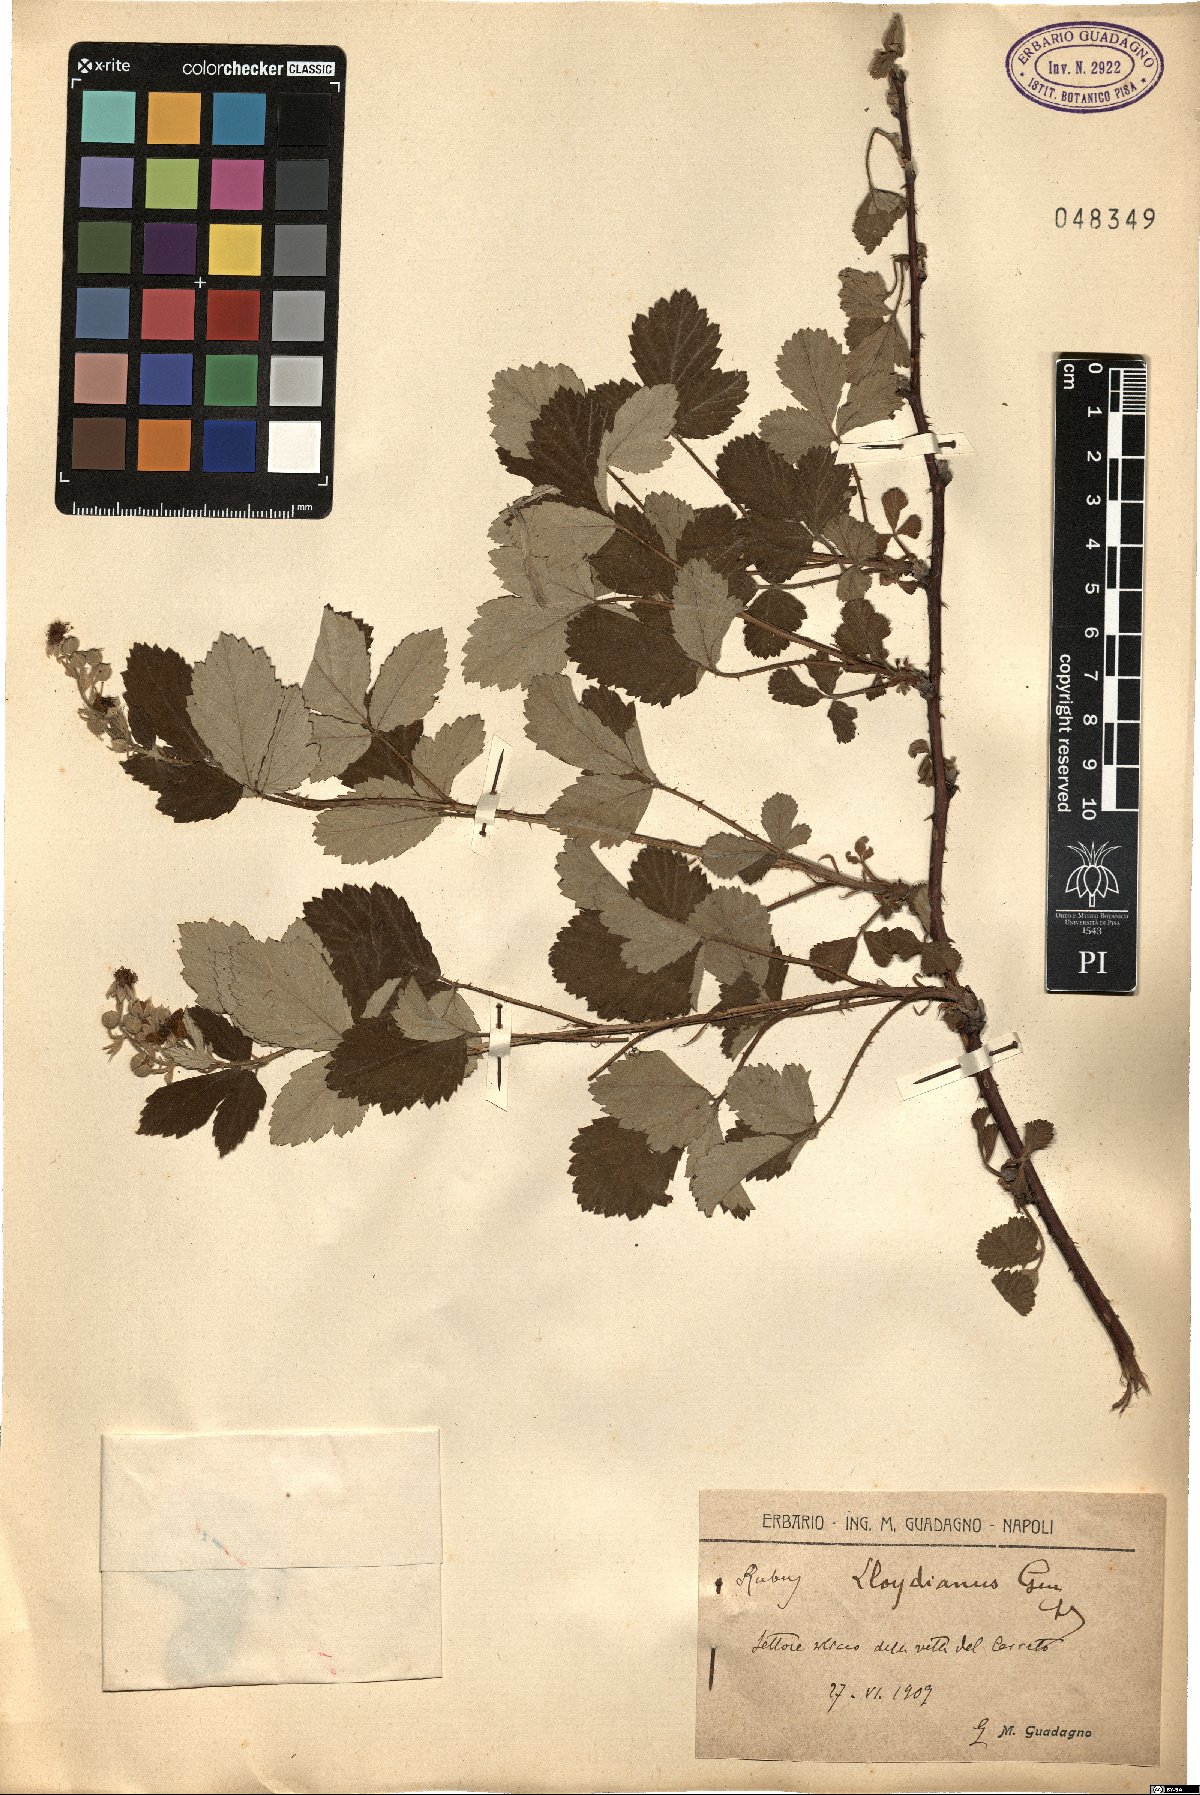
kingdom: Plantae
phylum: Tracheophyta
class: Magnoliopsida
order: Rosales
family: Rosaceae
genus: Rubus
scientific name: Rubus aetnicus
